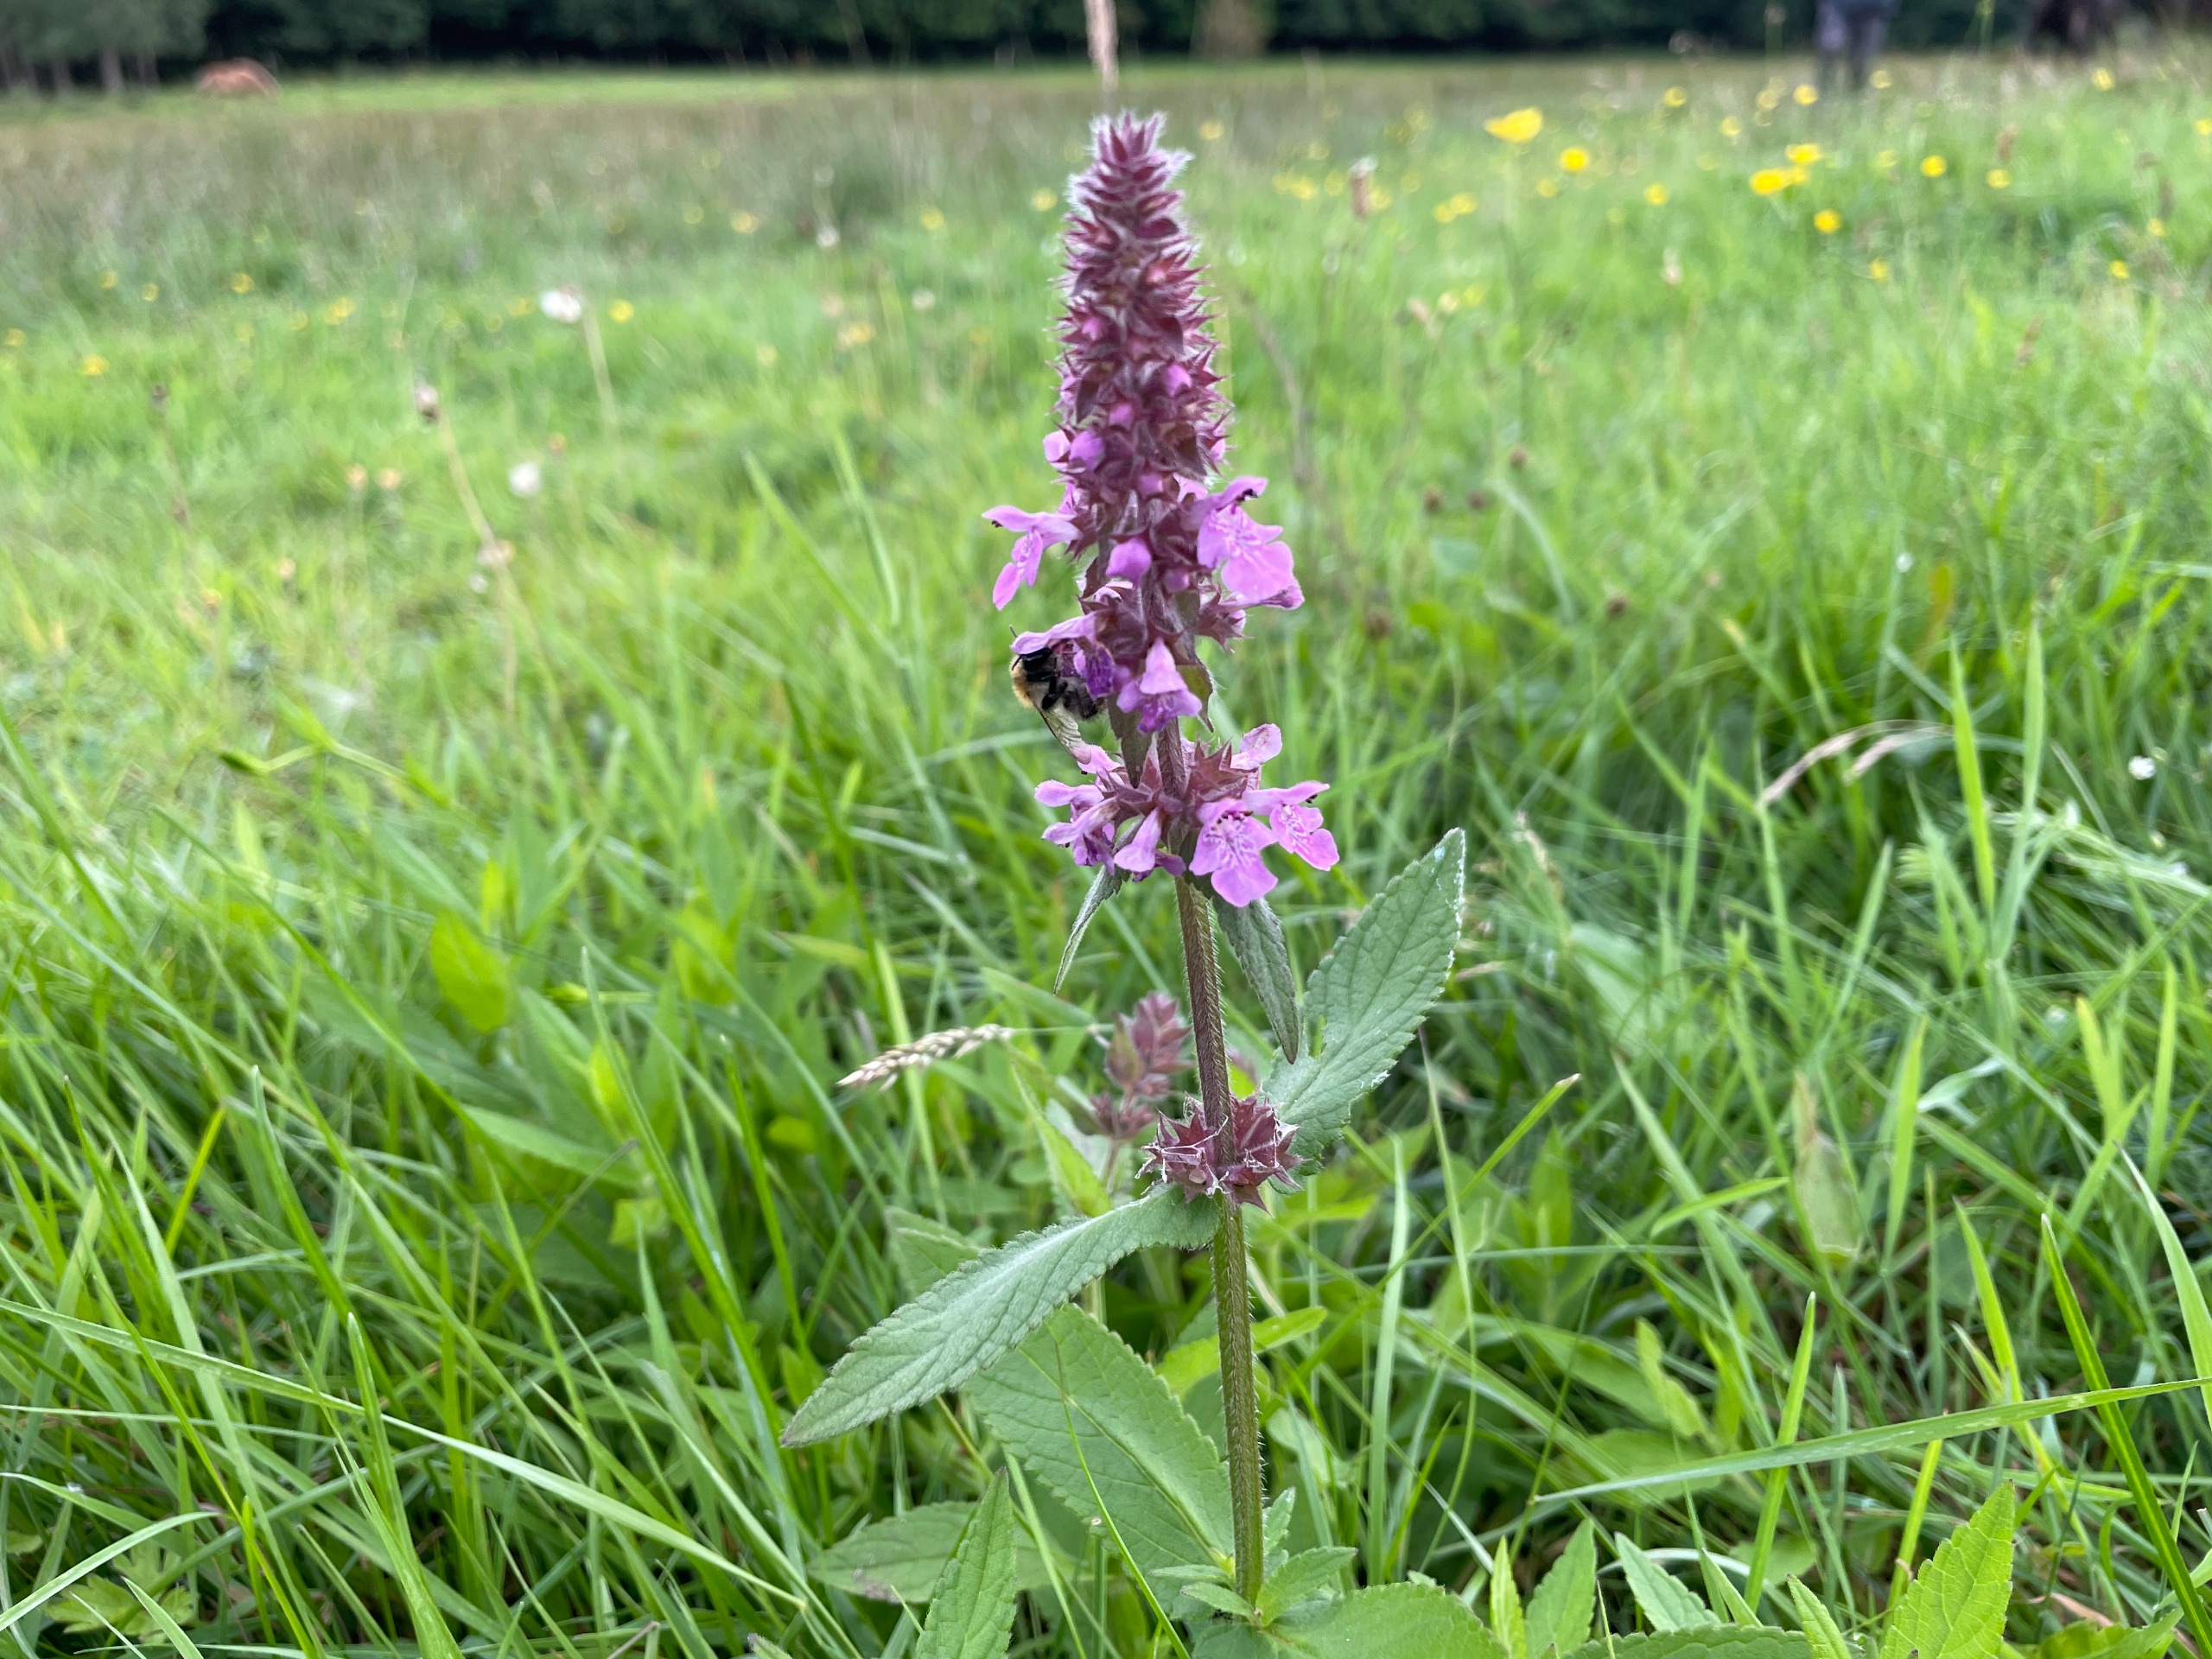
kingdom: Plantae
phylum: Tracheophyta
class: Magnoliopsida
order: Lamiales
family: Lamiaceae
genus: Stachys
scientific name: Stachys palustris
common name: Kær-galtetand
